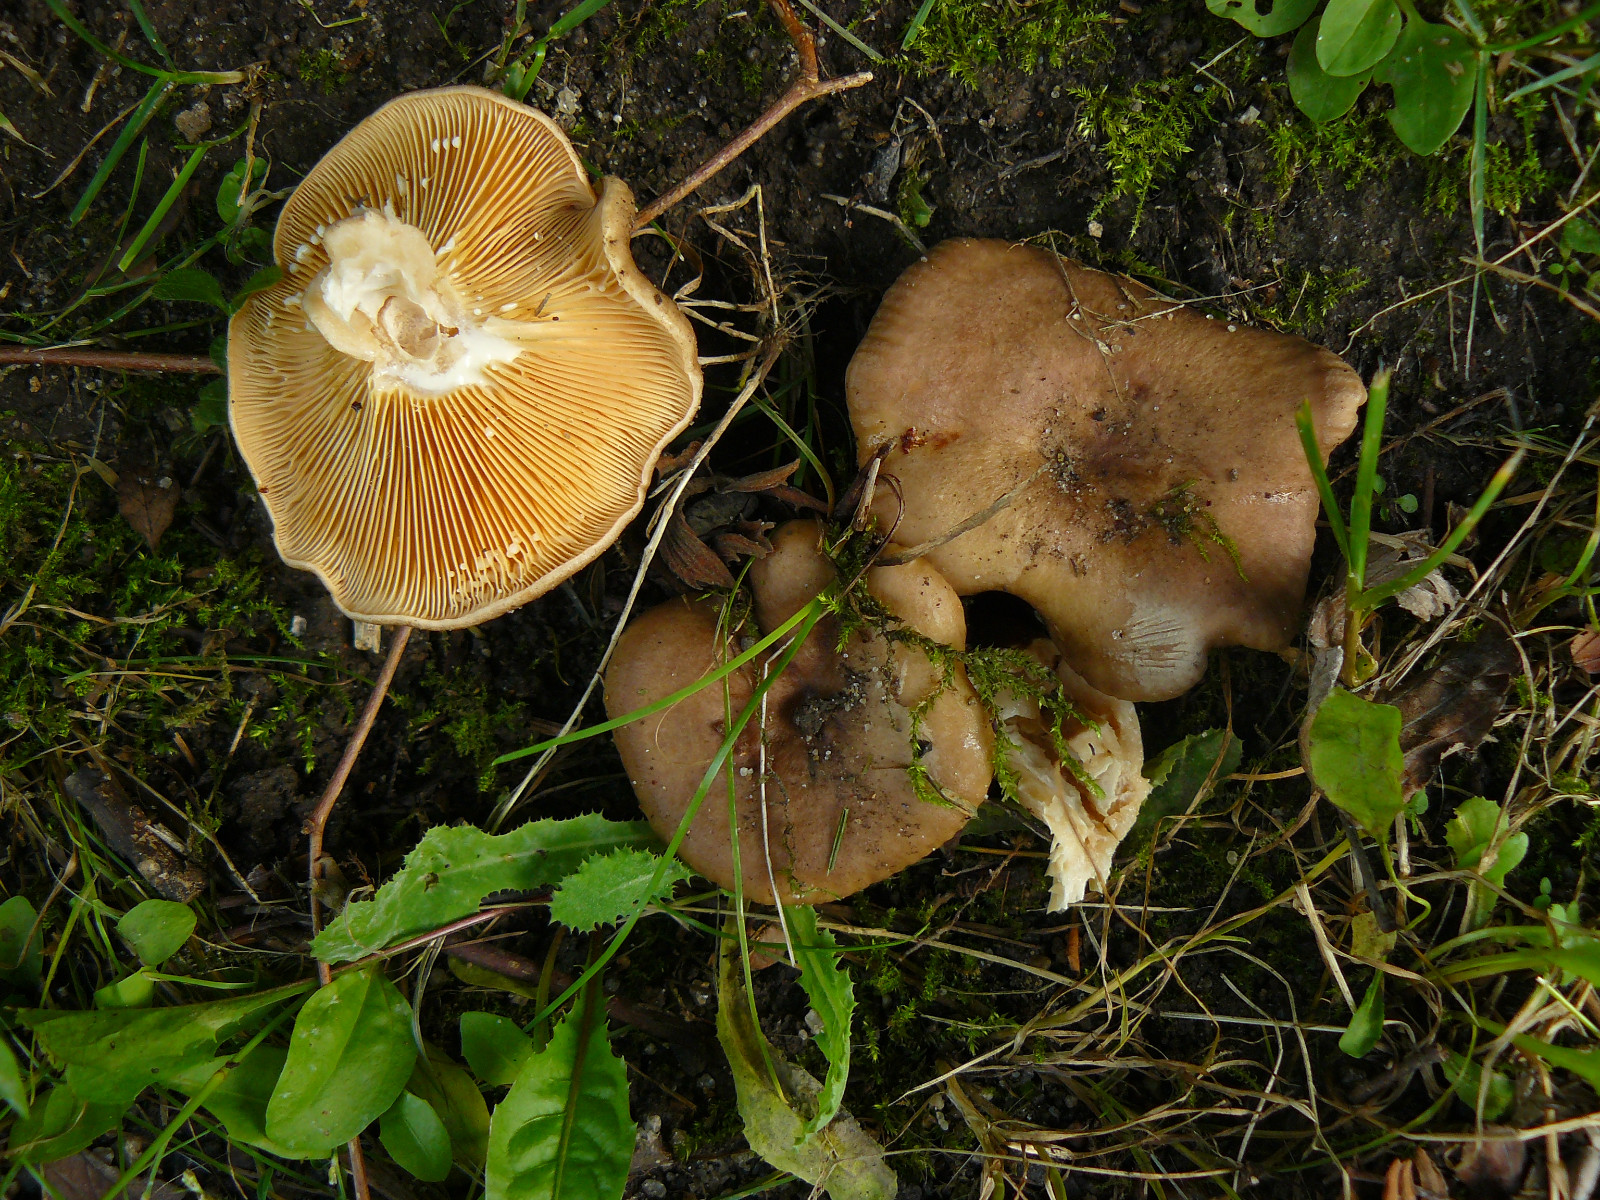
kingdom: Fungi
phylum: Basidiomycota
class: Agaricomycetes
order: Russulales
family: Russulaceae
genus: Lactarius
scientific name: Lactarius pyrogalus
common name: hassel-mælkehat
